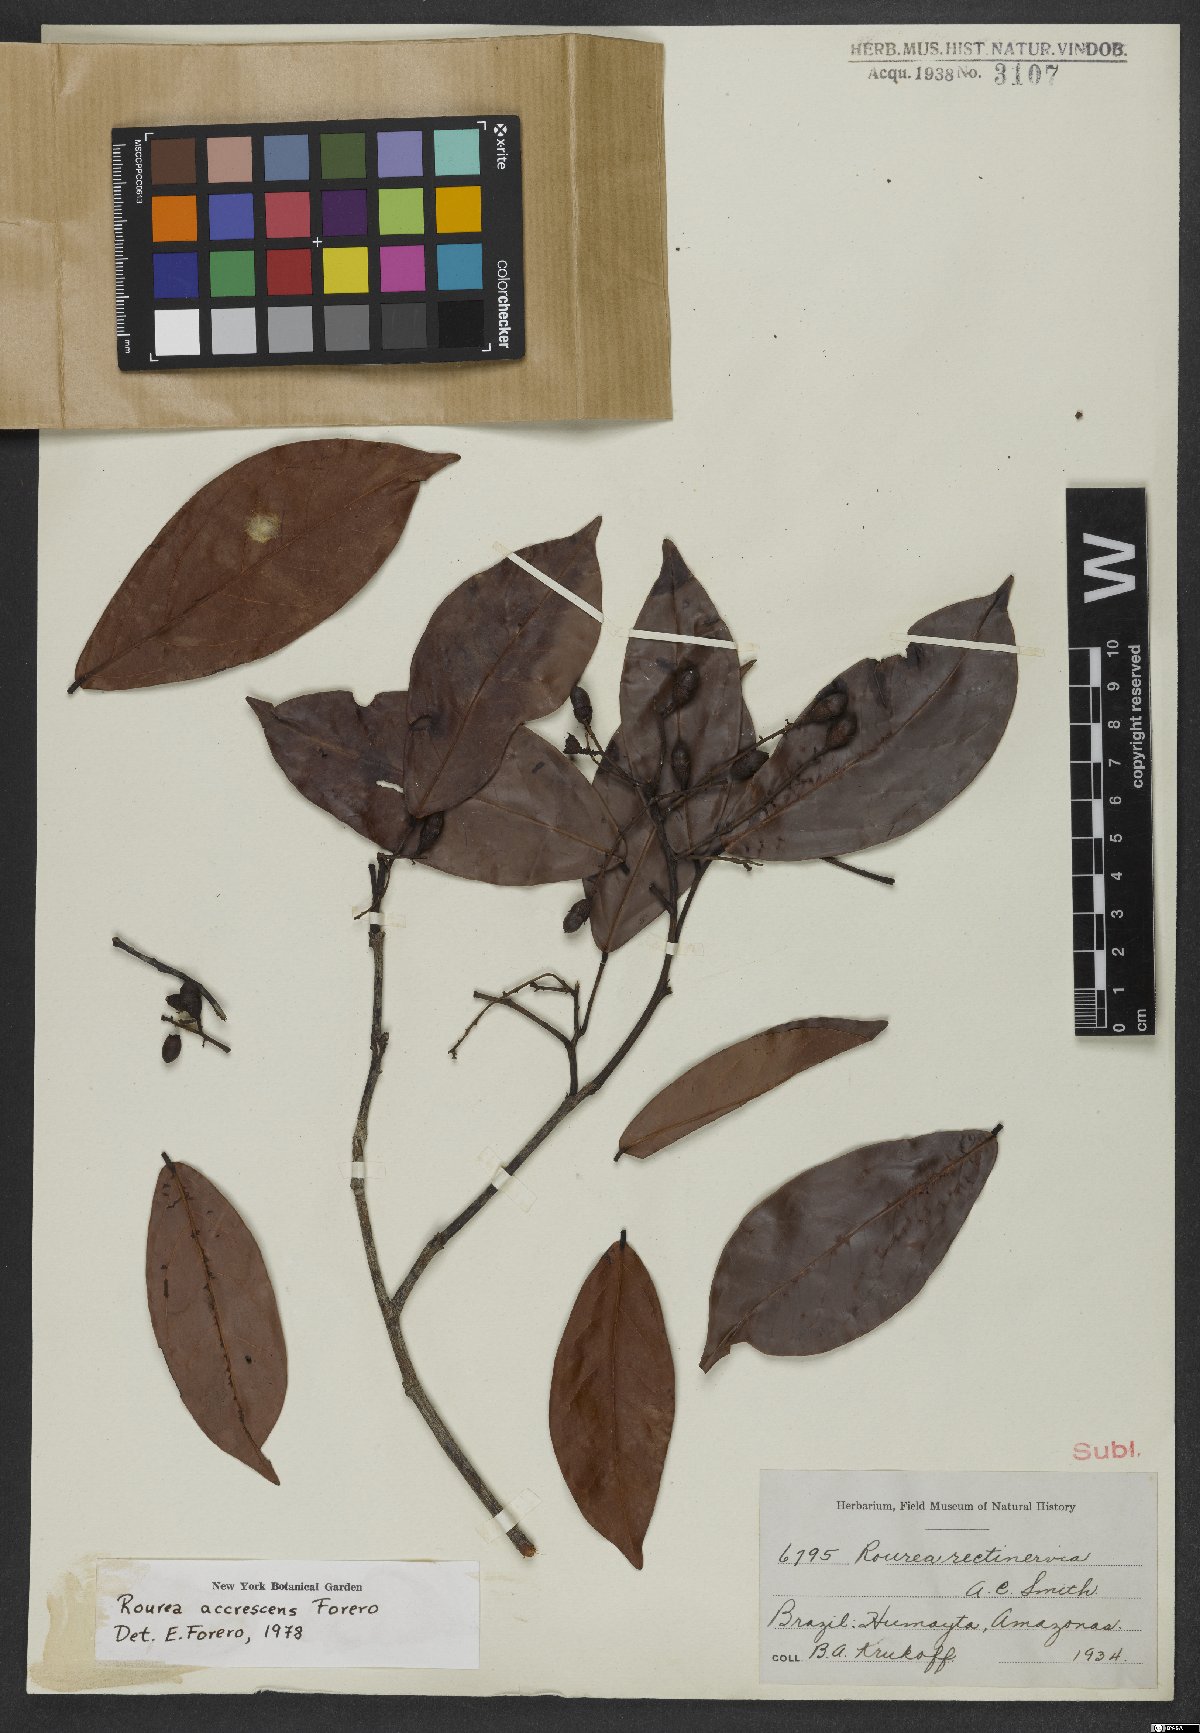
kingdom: Plantae
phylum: Tracheophyta
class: Magnoliopsida
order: Oxalidales
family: Connaraceae
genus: Rourea
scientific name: Rourea accrescens
